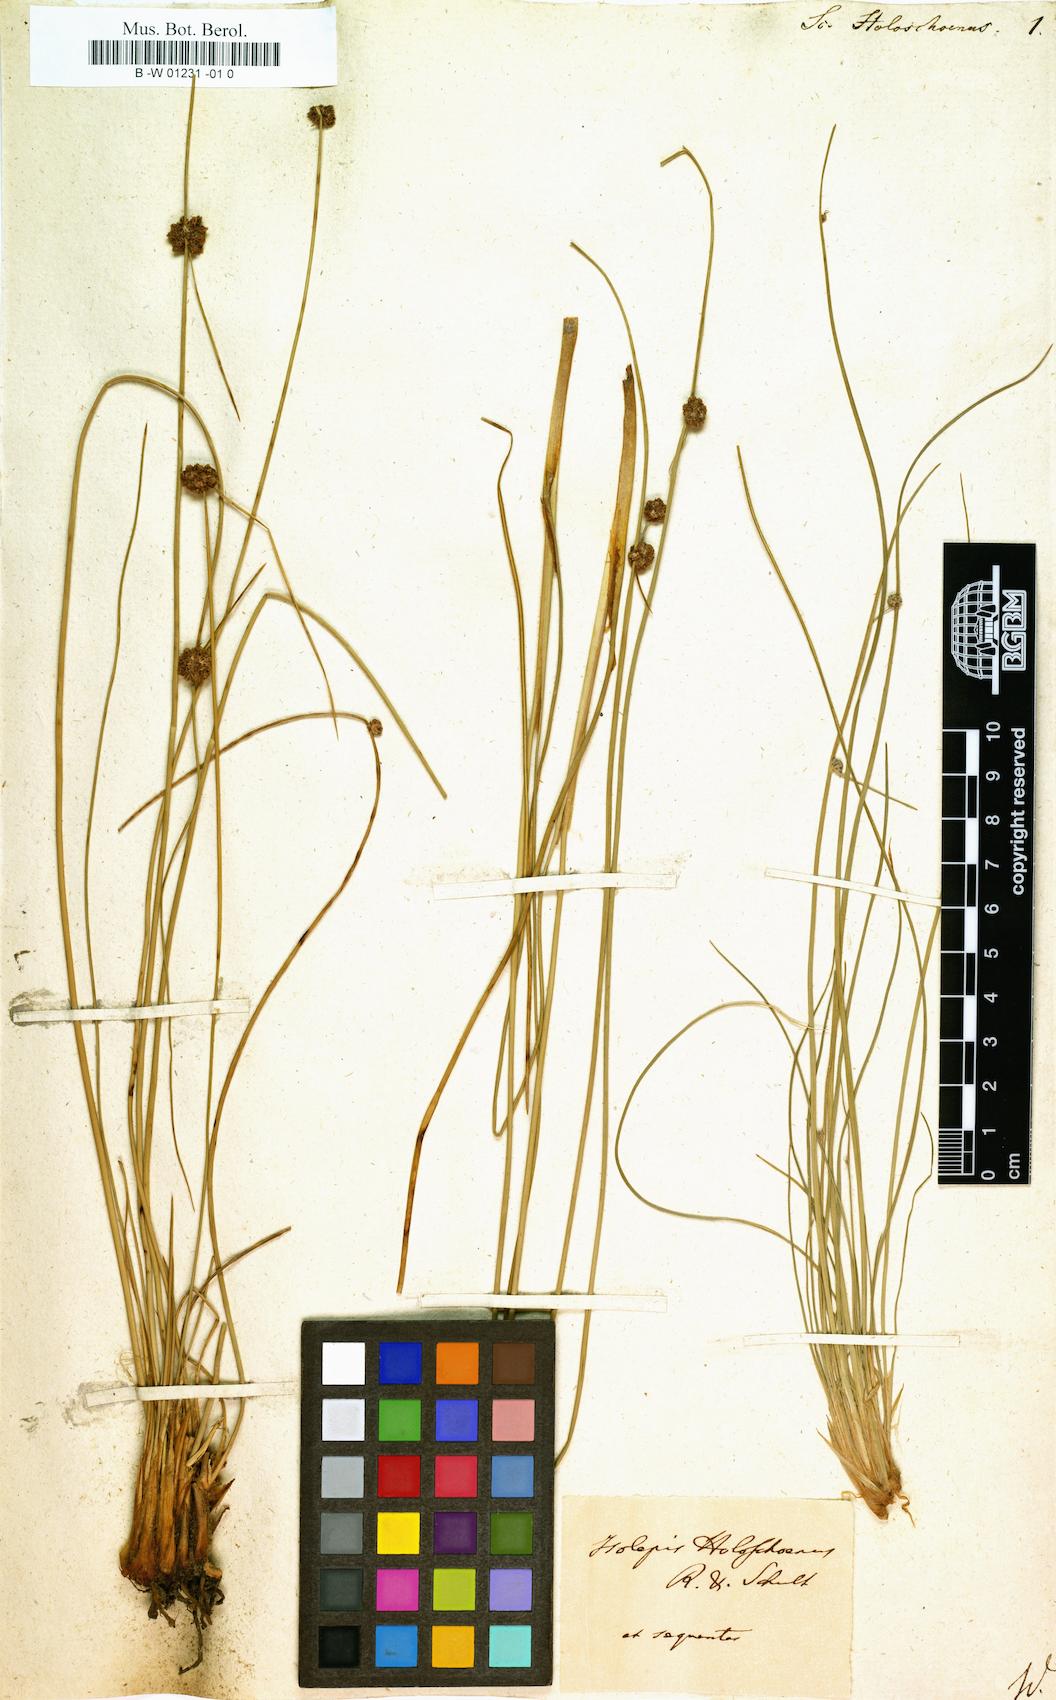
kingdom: Plantae
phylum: Tracheophyta
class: Liliopsida
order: Poales
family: Cyperaceae
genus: Scirpoides
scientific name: Scirpoides holoschoenus
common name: Round-headed club-rush
